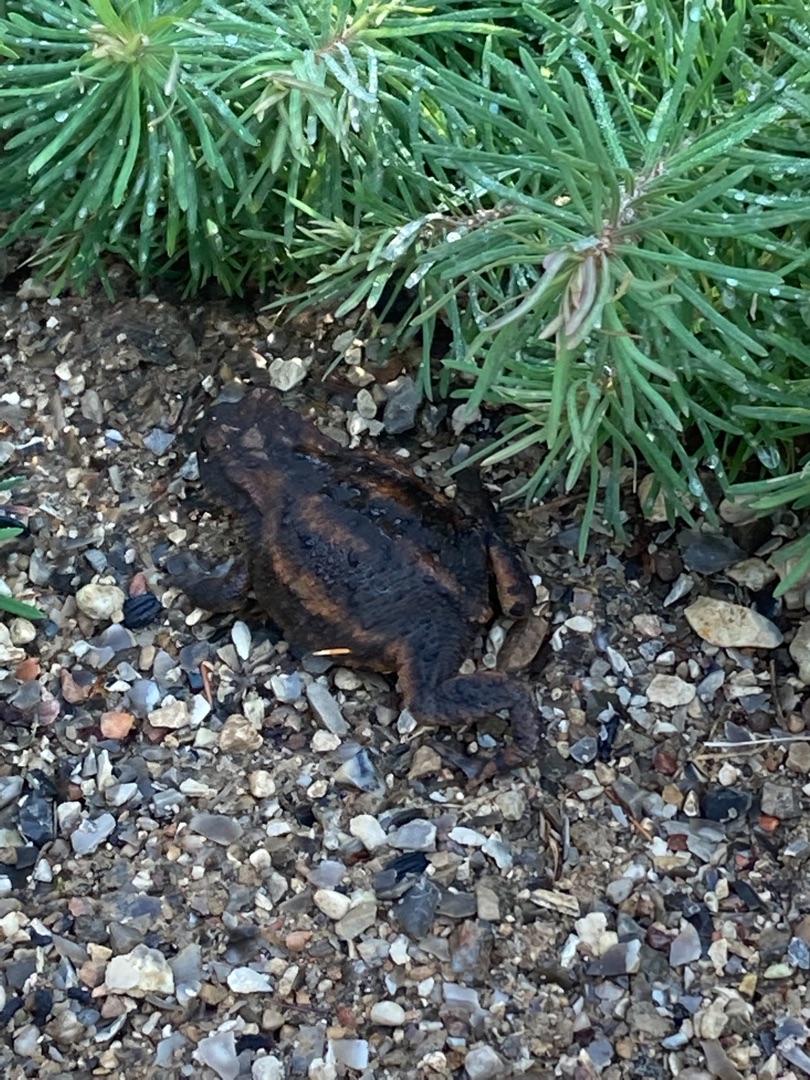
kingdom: Animalia
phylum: Chordata
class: Amphibia
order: Anura
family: Bufonidae
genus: Bufo
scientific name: Bufo bufo
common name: Skrubtudse
